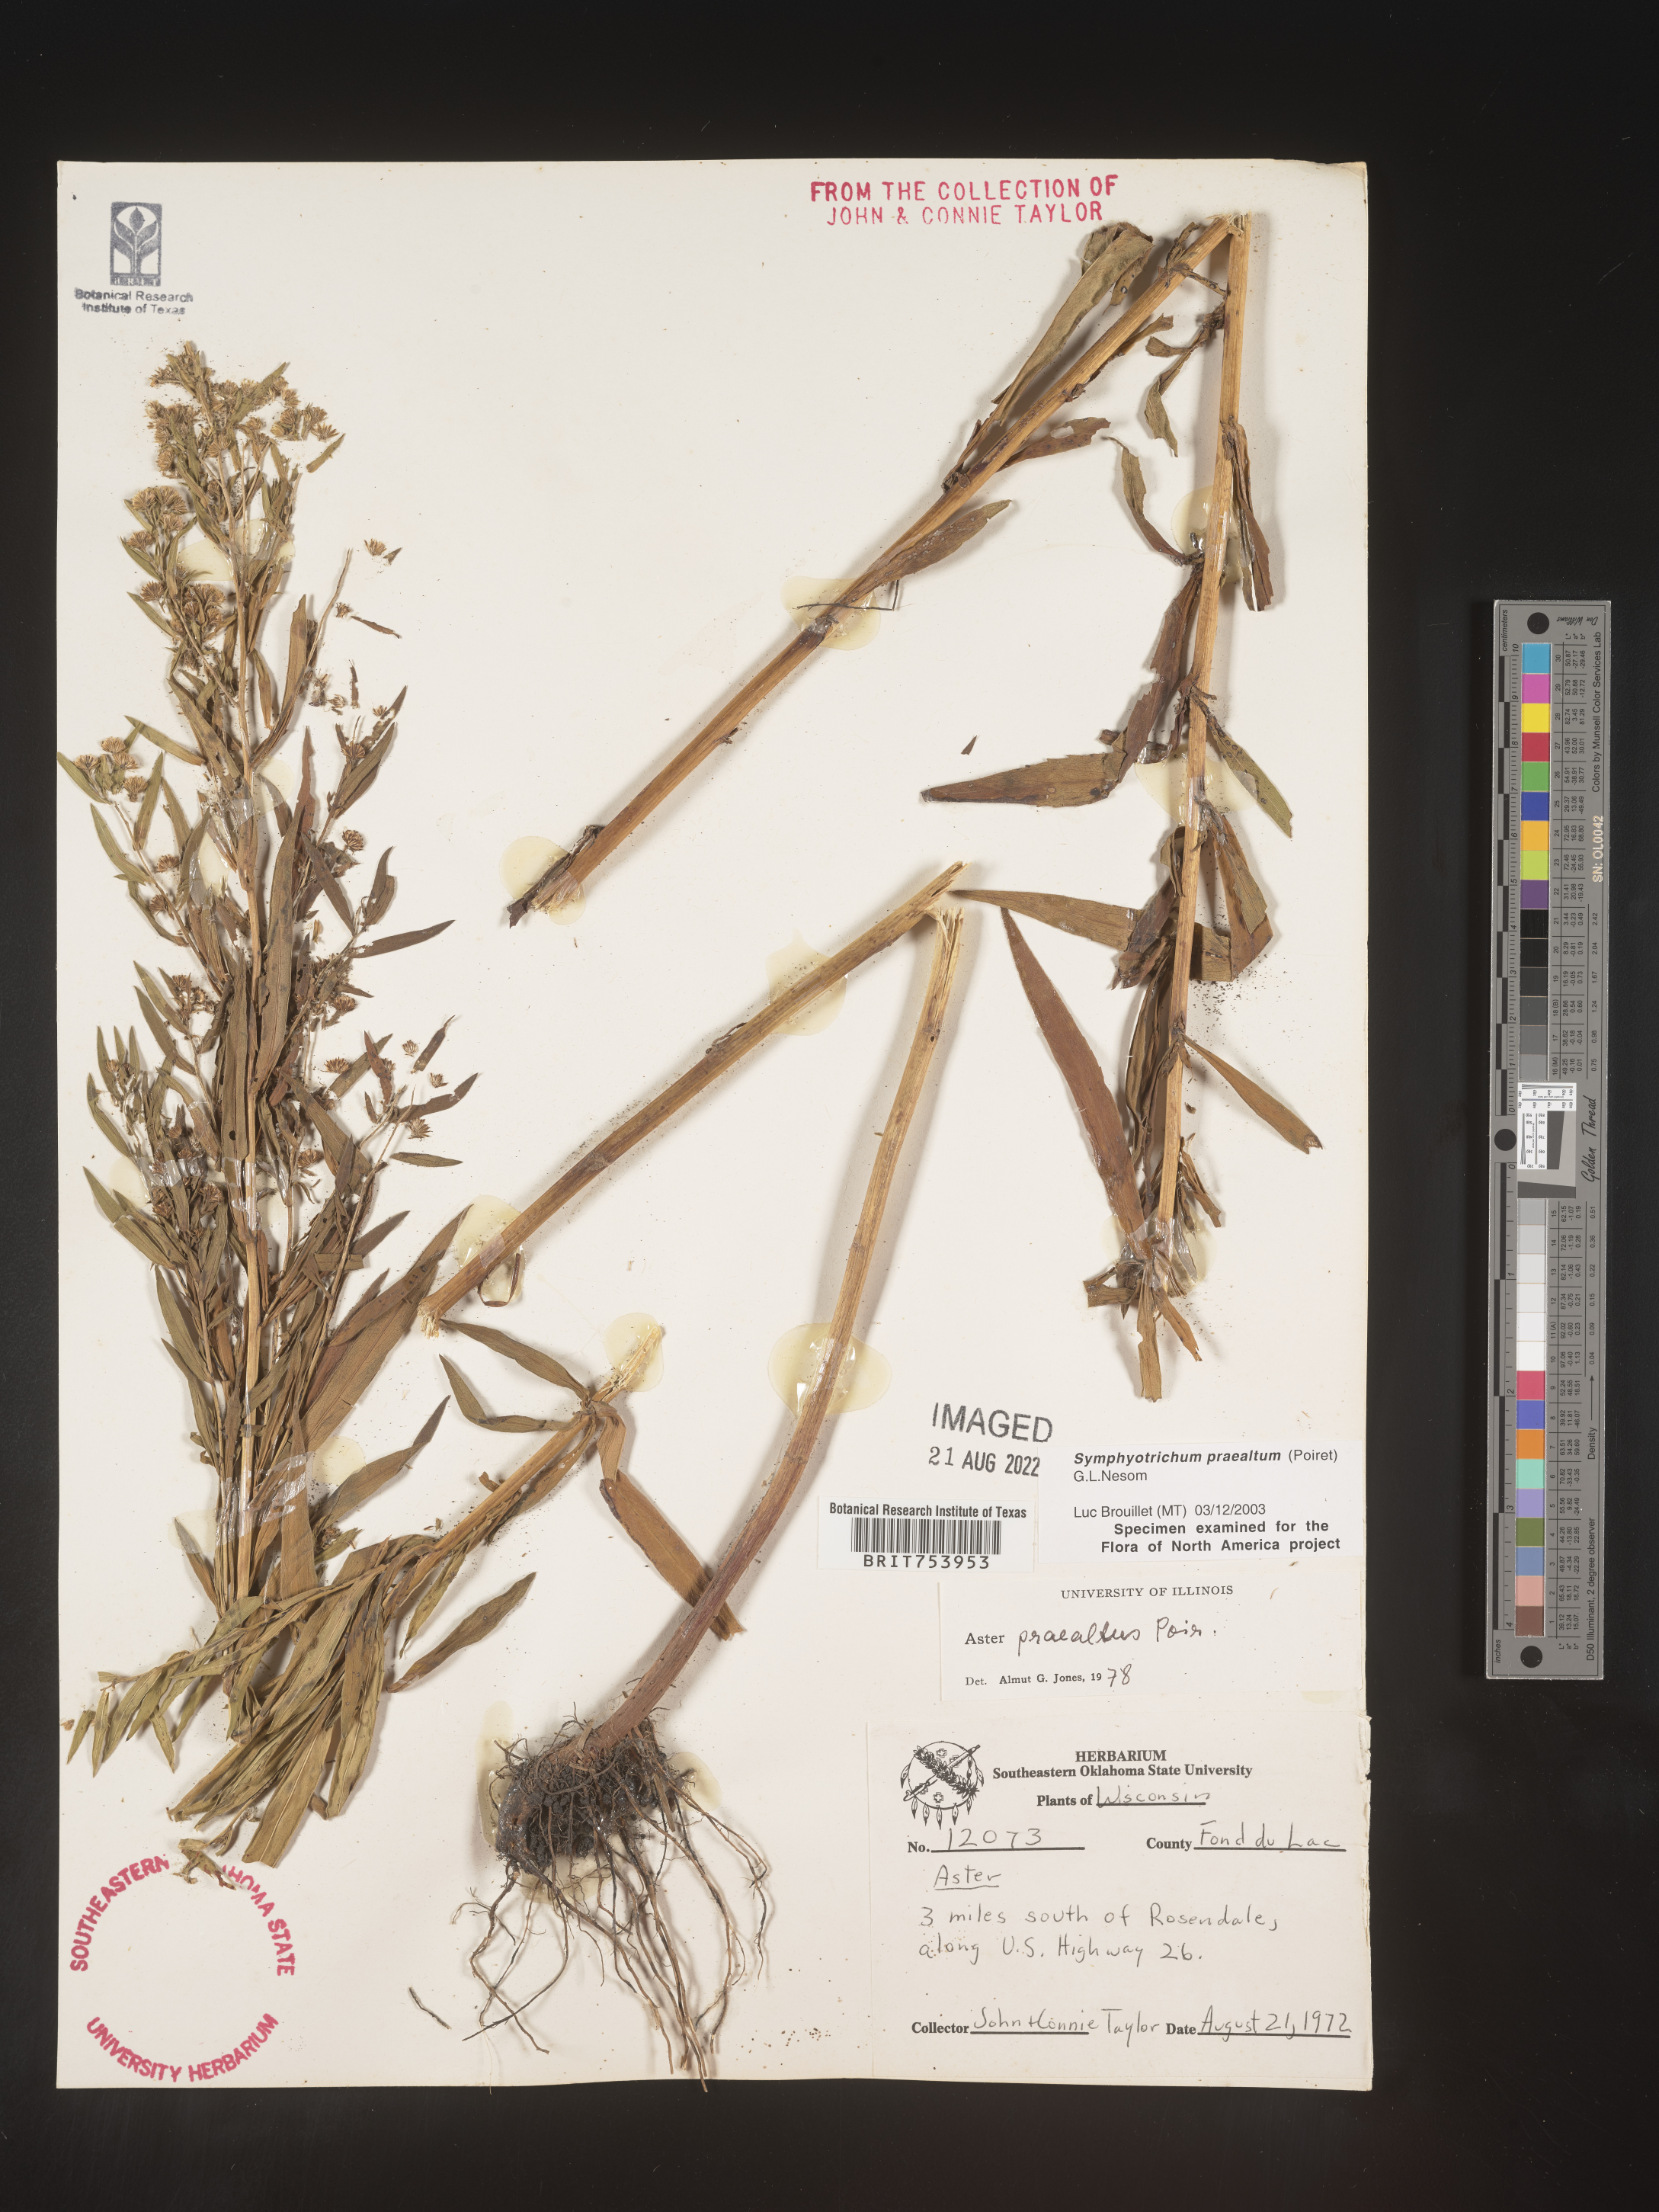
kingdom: Plantae
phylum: Tracheophyta
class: Magnoliopsida
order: Asterales
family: Asteraceae
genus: Symphyotrichum
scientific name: Symphyotrichum praealtum
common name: Willow aster
